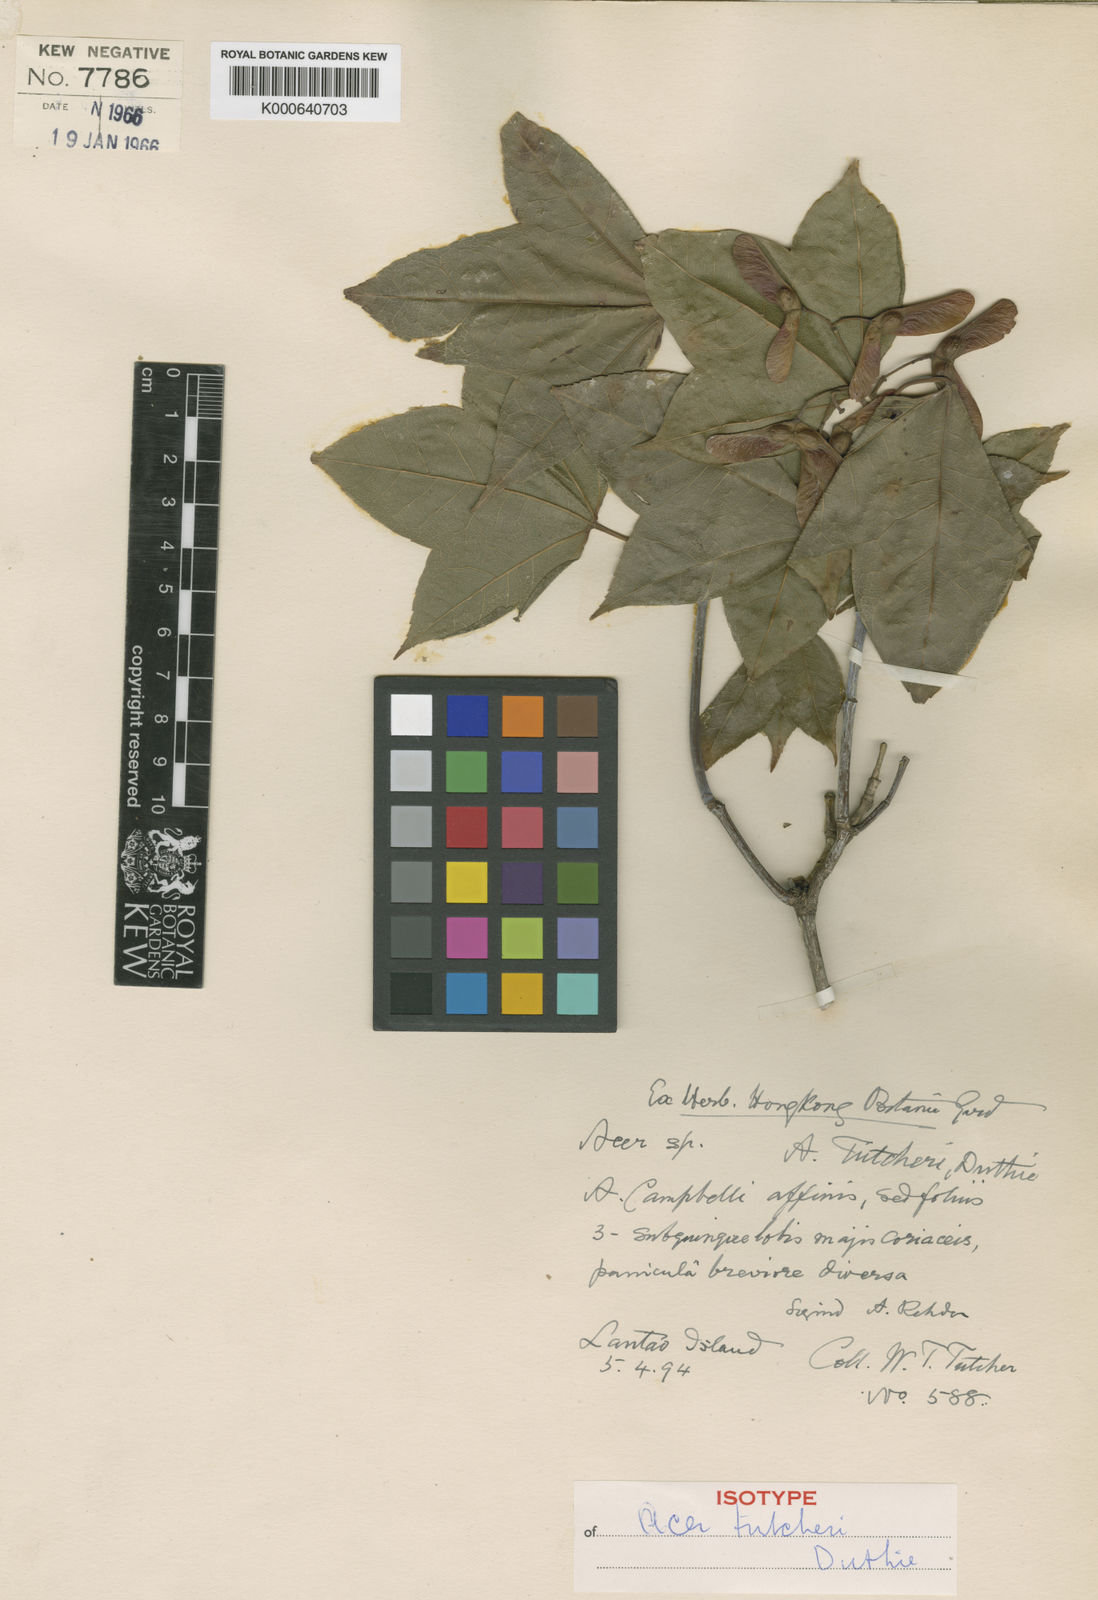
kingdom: Plantae
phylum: Tracheophyta
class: Magnoliopsida
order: Sapindales
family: Sapindaceae
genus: Acer
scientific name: Acer tutcheri
